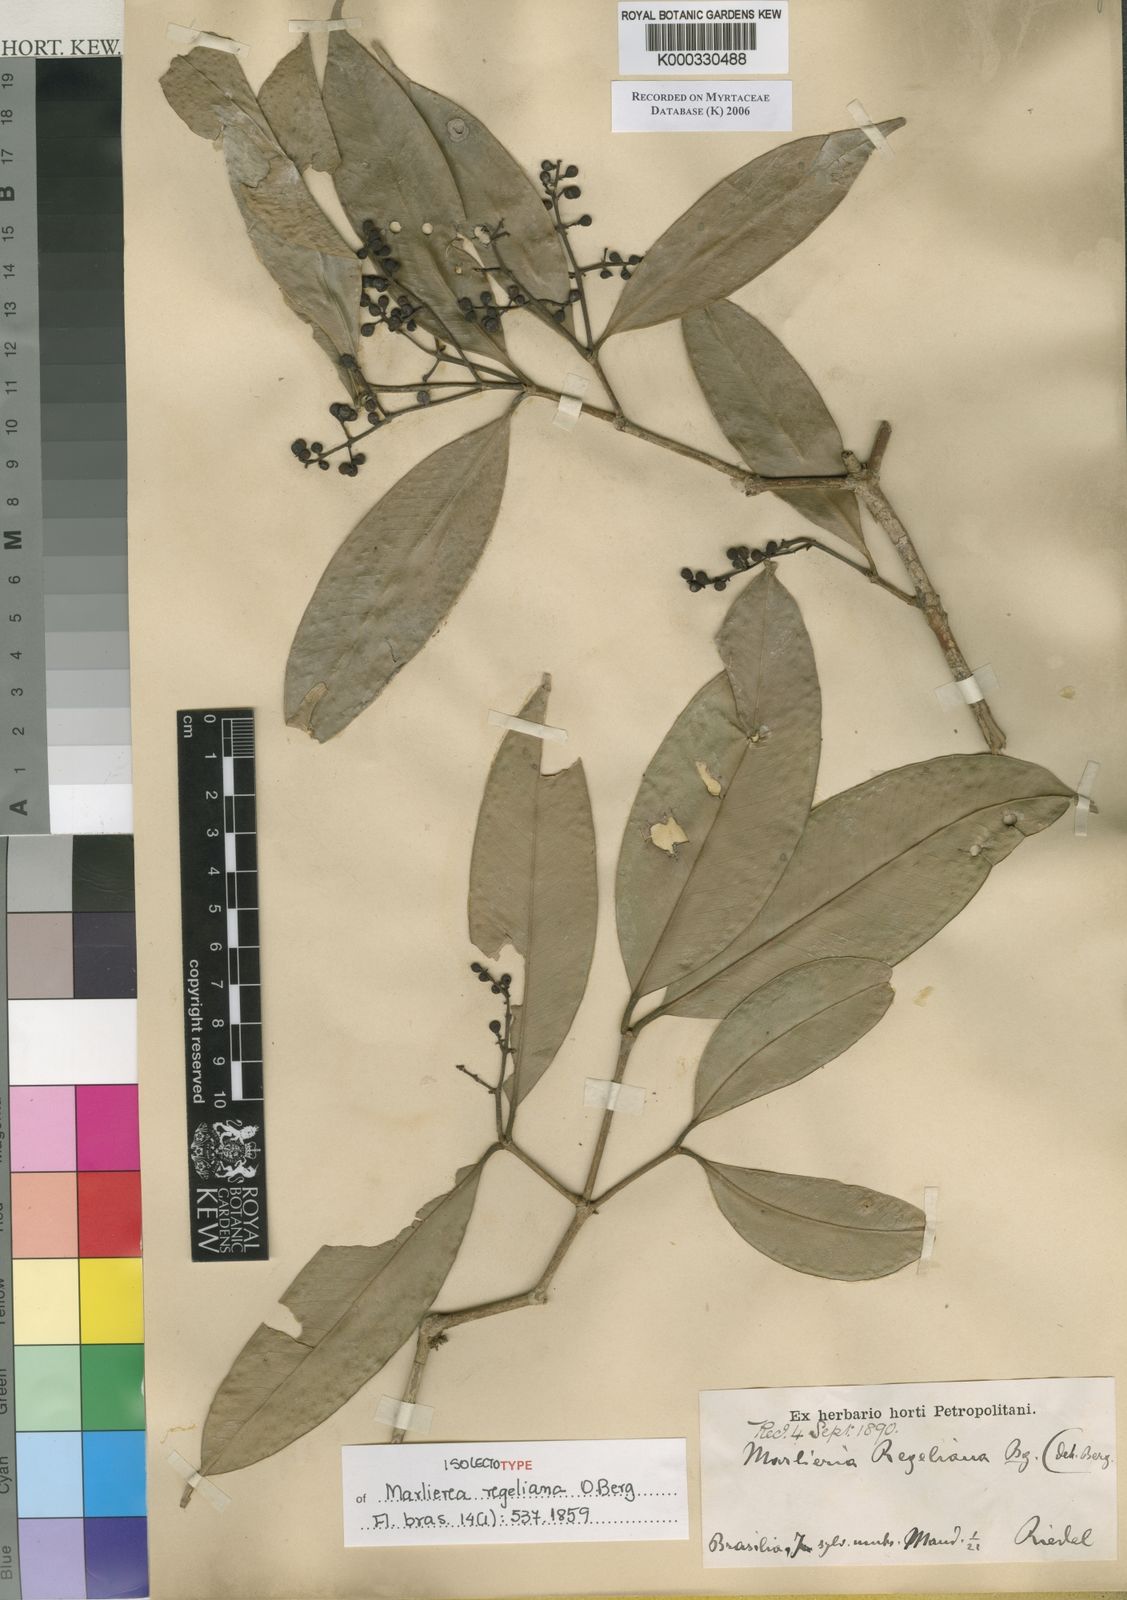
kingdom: Plantae
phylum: Tracheophyta
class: Magnoliopsida
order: Myrtales
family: Myrtaceae
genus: Myrcia
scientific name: Myrcia neoregeliana
